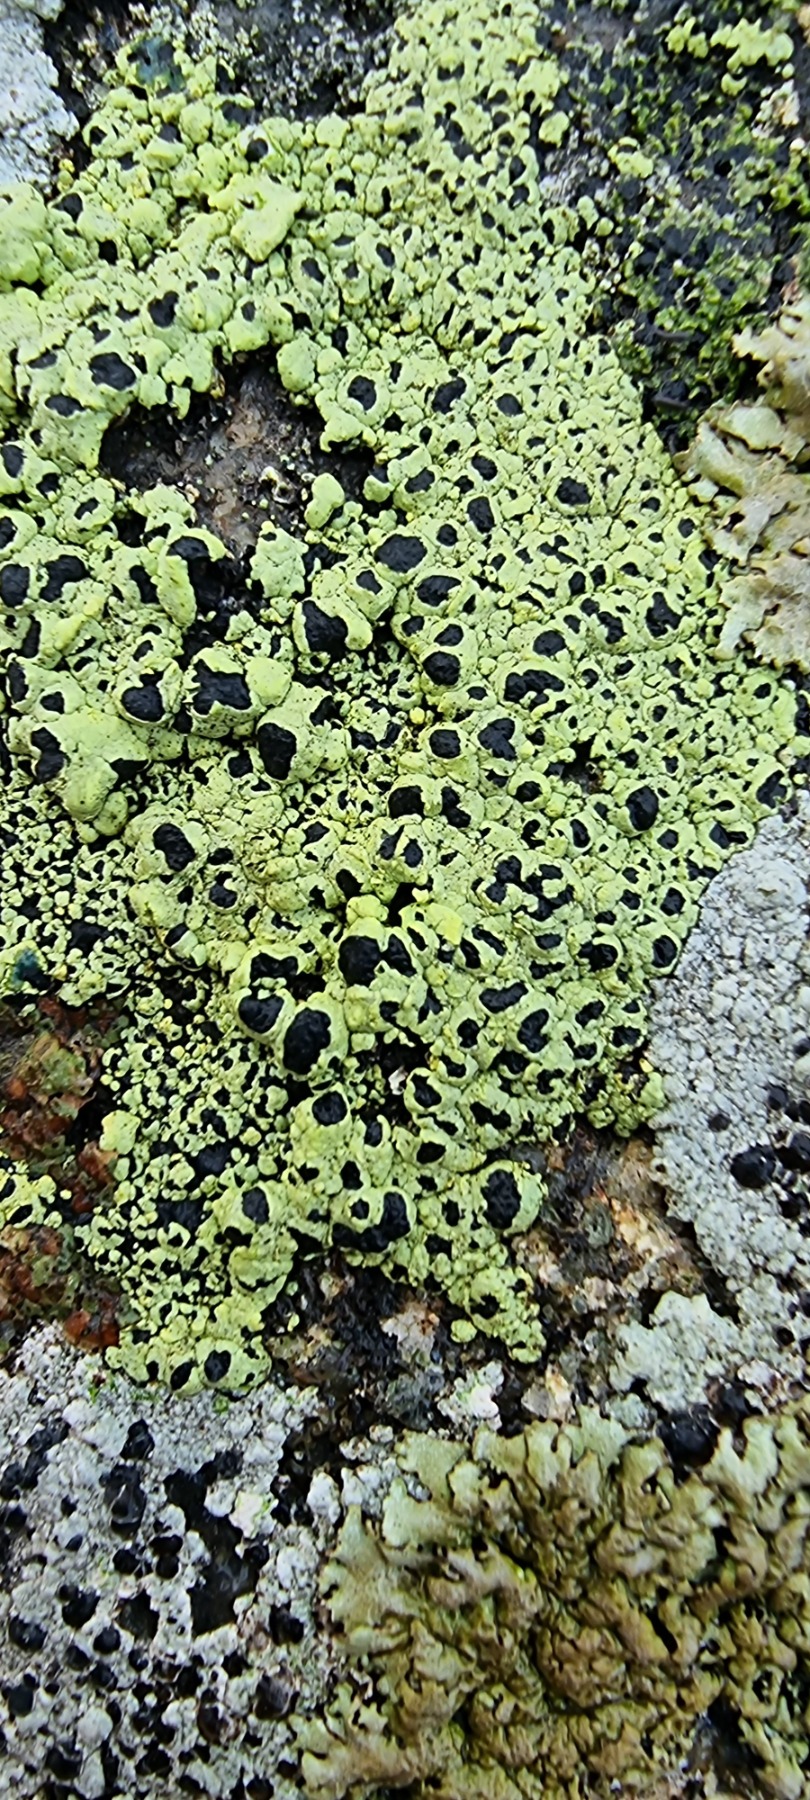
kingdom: Fungi
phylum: Ascomycota
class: Lecanoromycetes
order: Rhizocarpales
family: Rhizocarpaceae
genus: Rhizocarpon
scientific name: Rhizocarpon lecanorinum
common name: Krave-landkortlav
